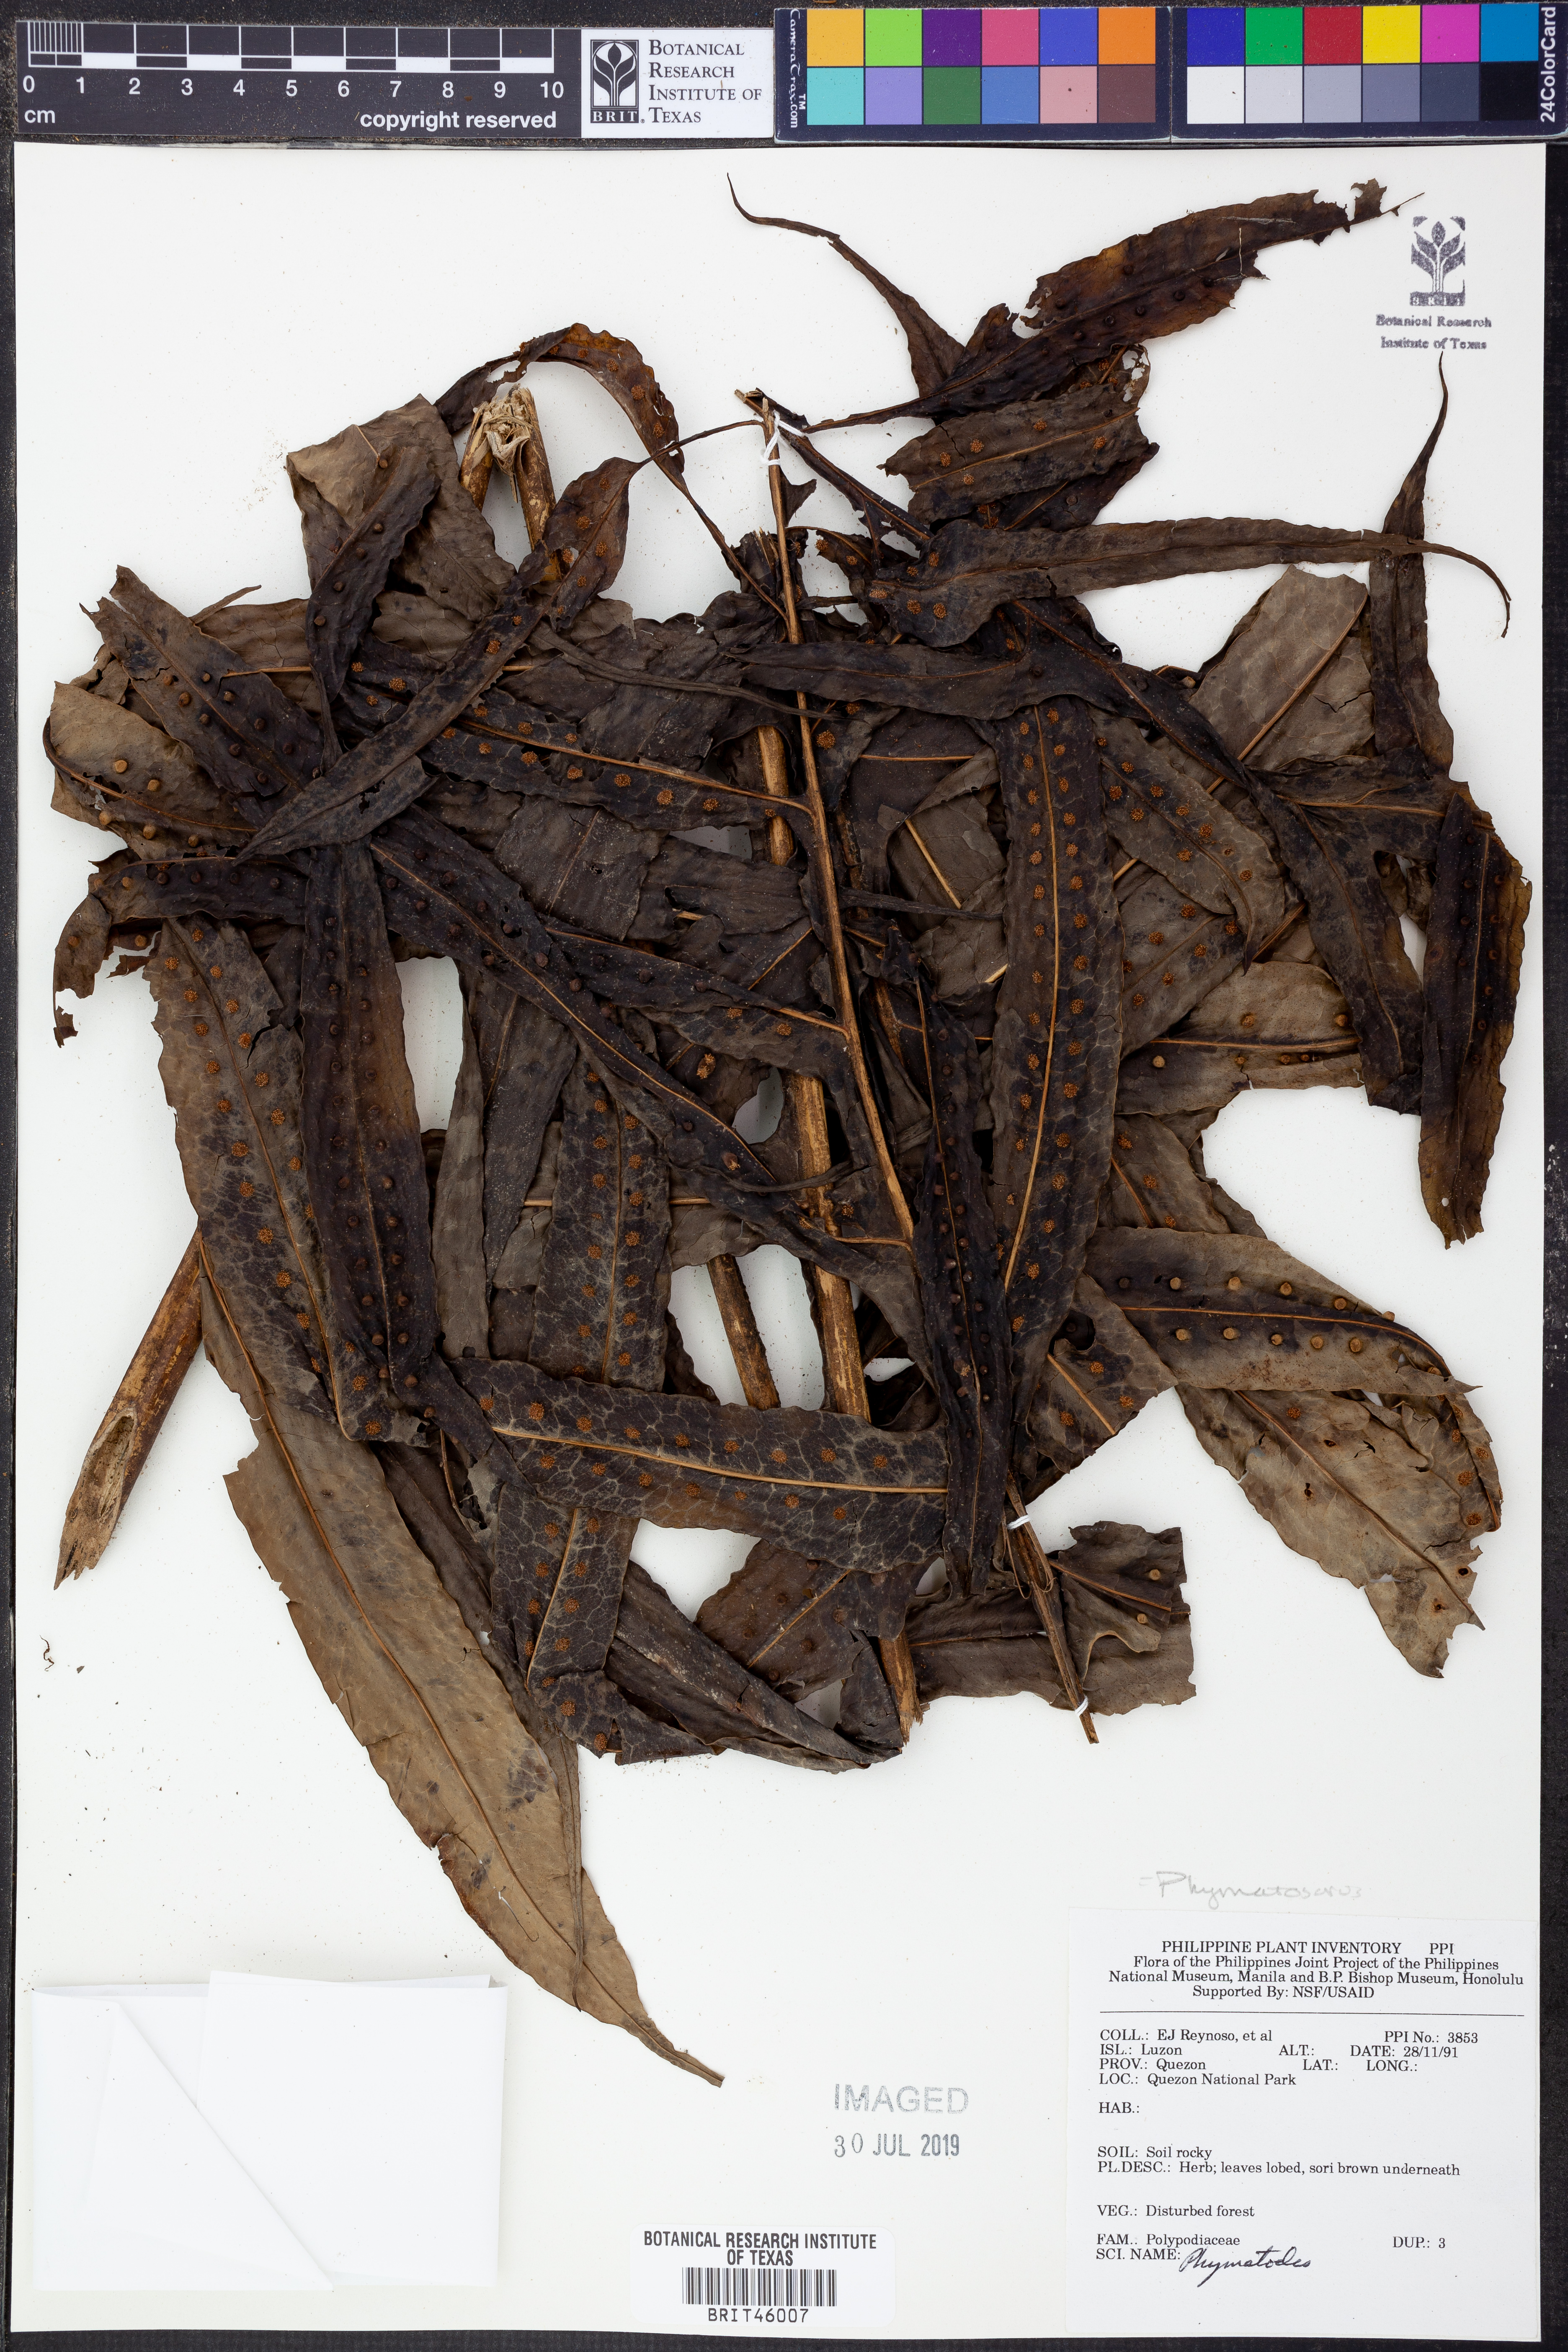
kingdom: Plantae
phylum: Tracheophyta
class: Polypodiopsida
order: Polypodiales
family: Polypodiaceae
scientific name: Polypodiaceae
